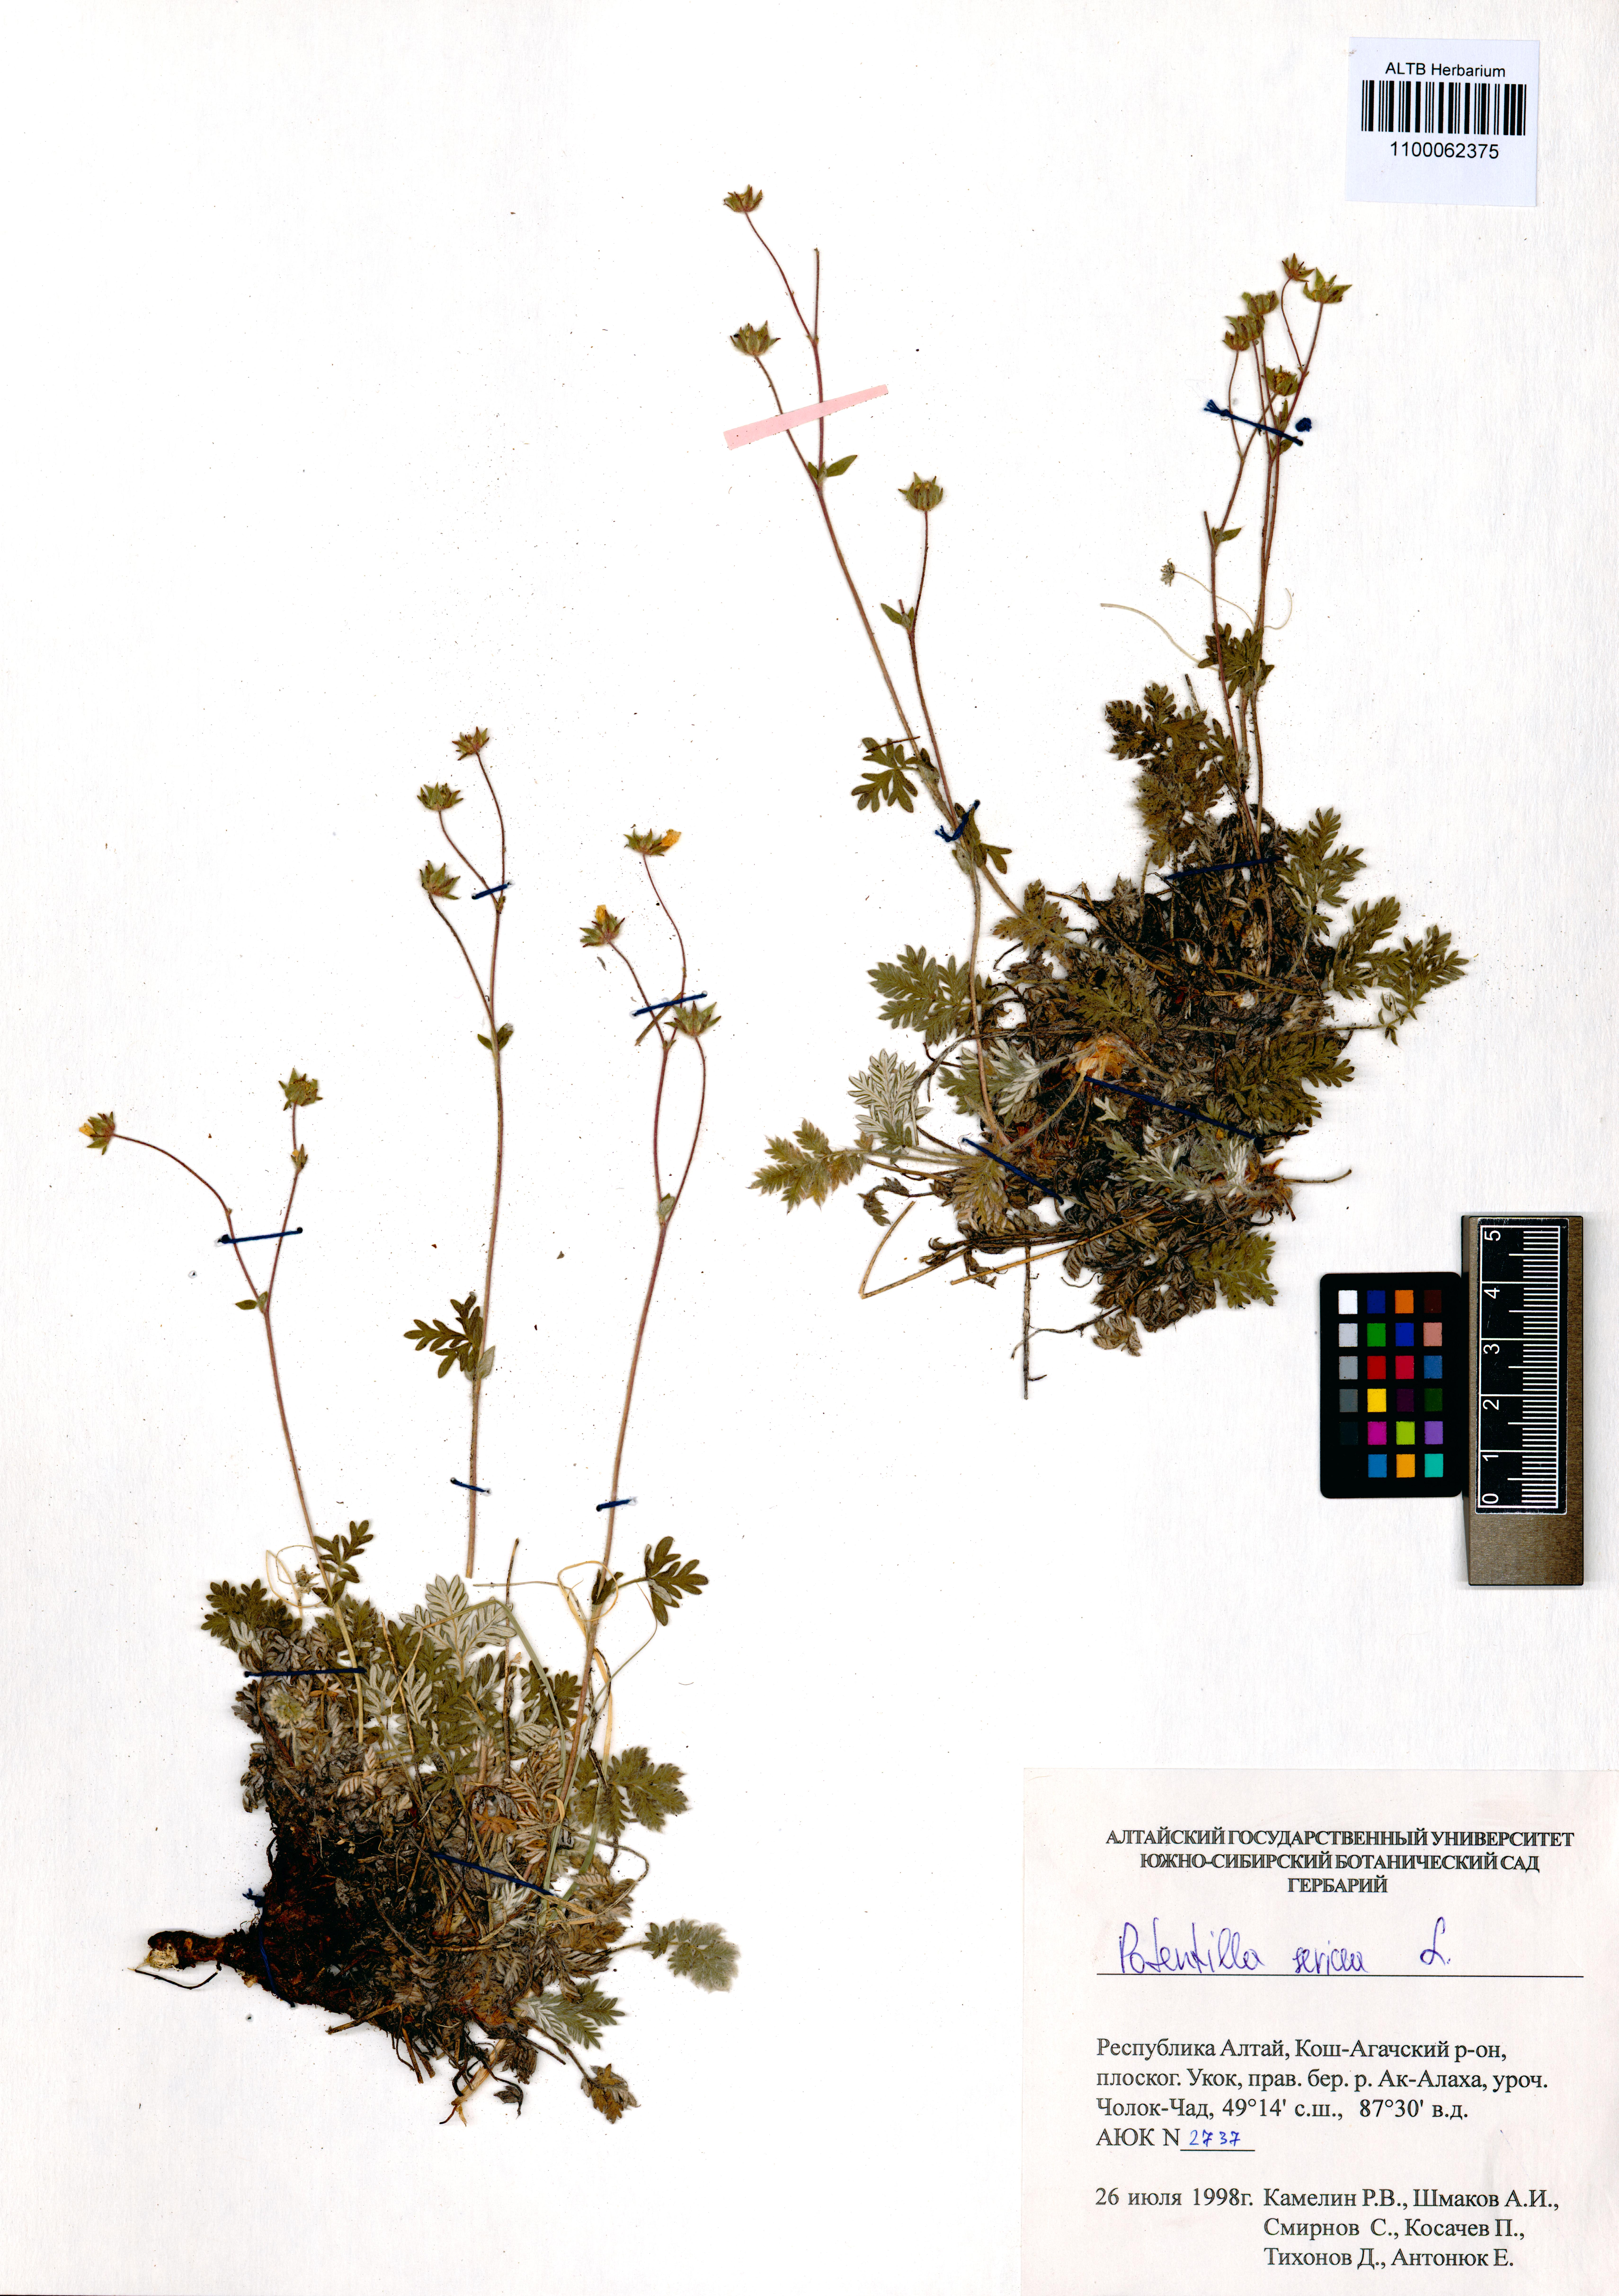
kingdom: Plantae
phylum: Tracheophyta
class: Magnoliopsida
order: Rosales
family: Rosaceae
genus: Potentilla
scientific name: Potentilla sericea
